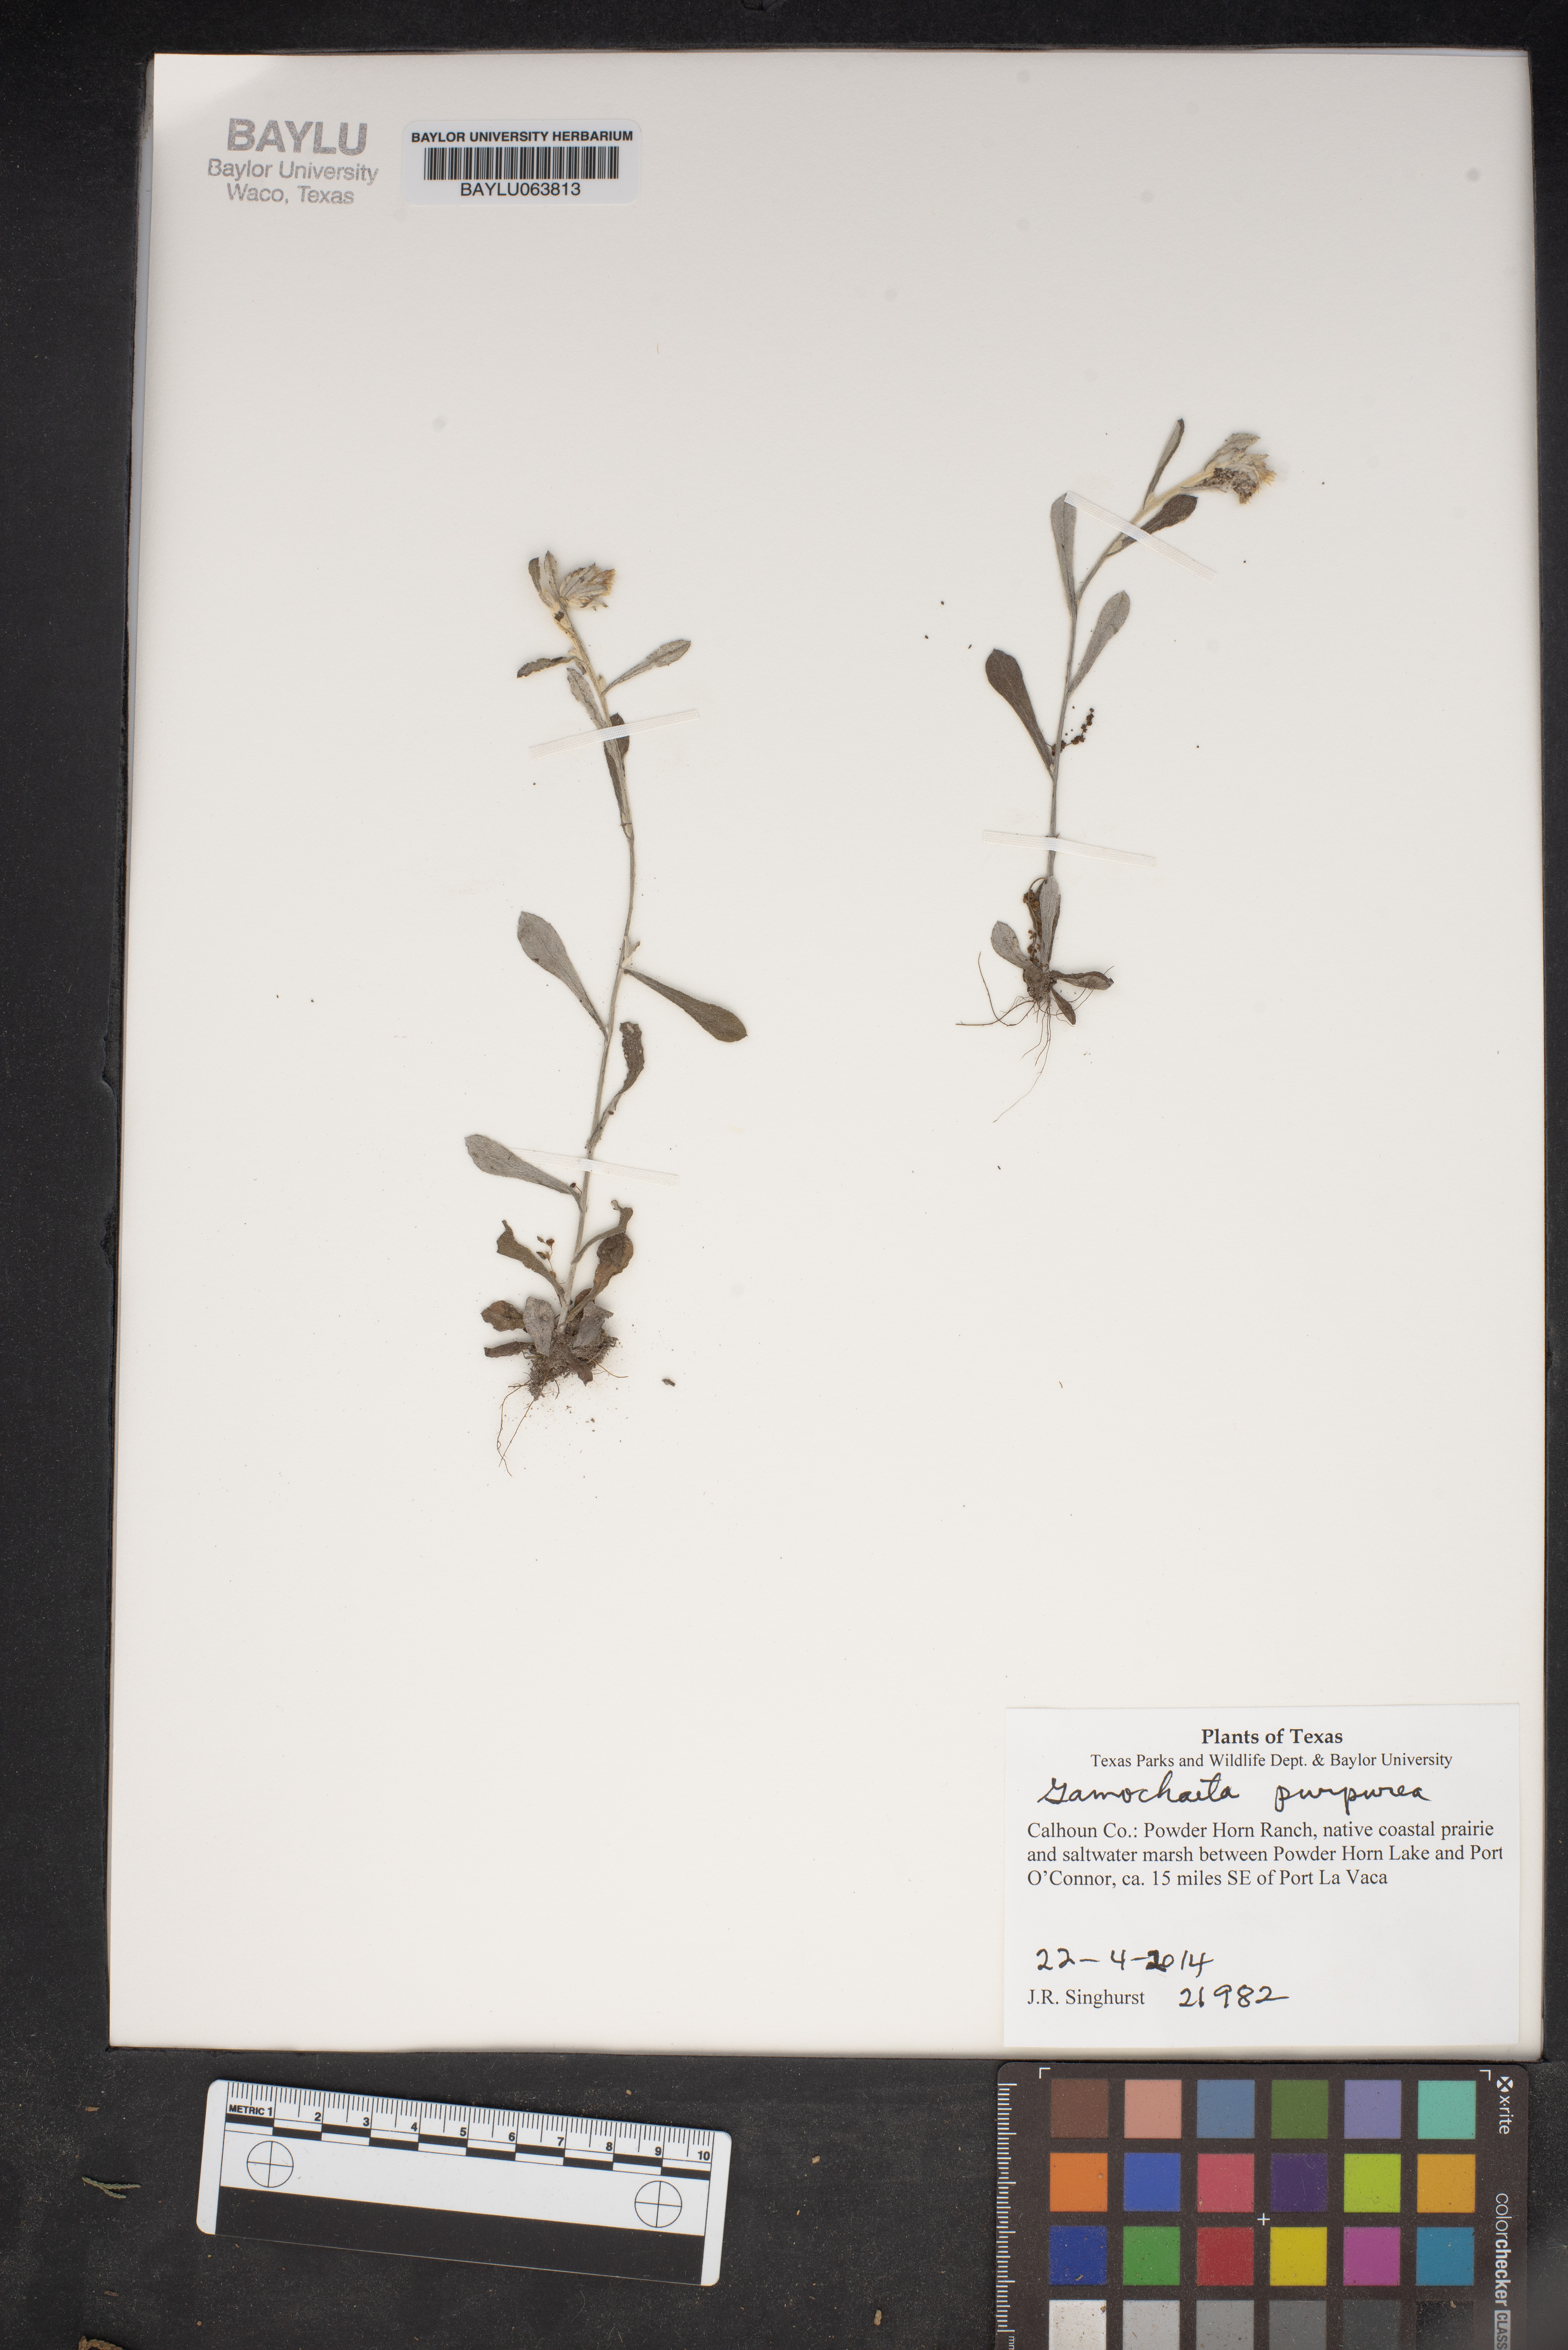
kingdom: Plantae
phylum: Tracheophyta
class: Magnoliopsida
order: Asterales
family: Asteraceae
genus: Gamochaeta
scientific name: Gamochaeta purpurea
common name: Purple cudweed
